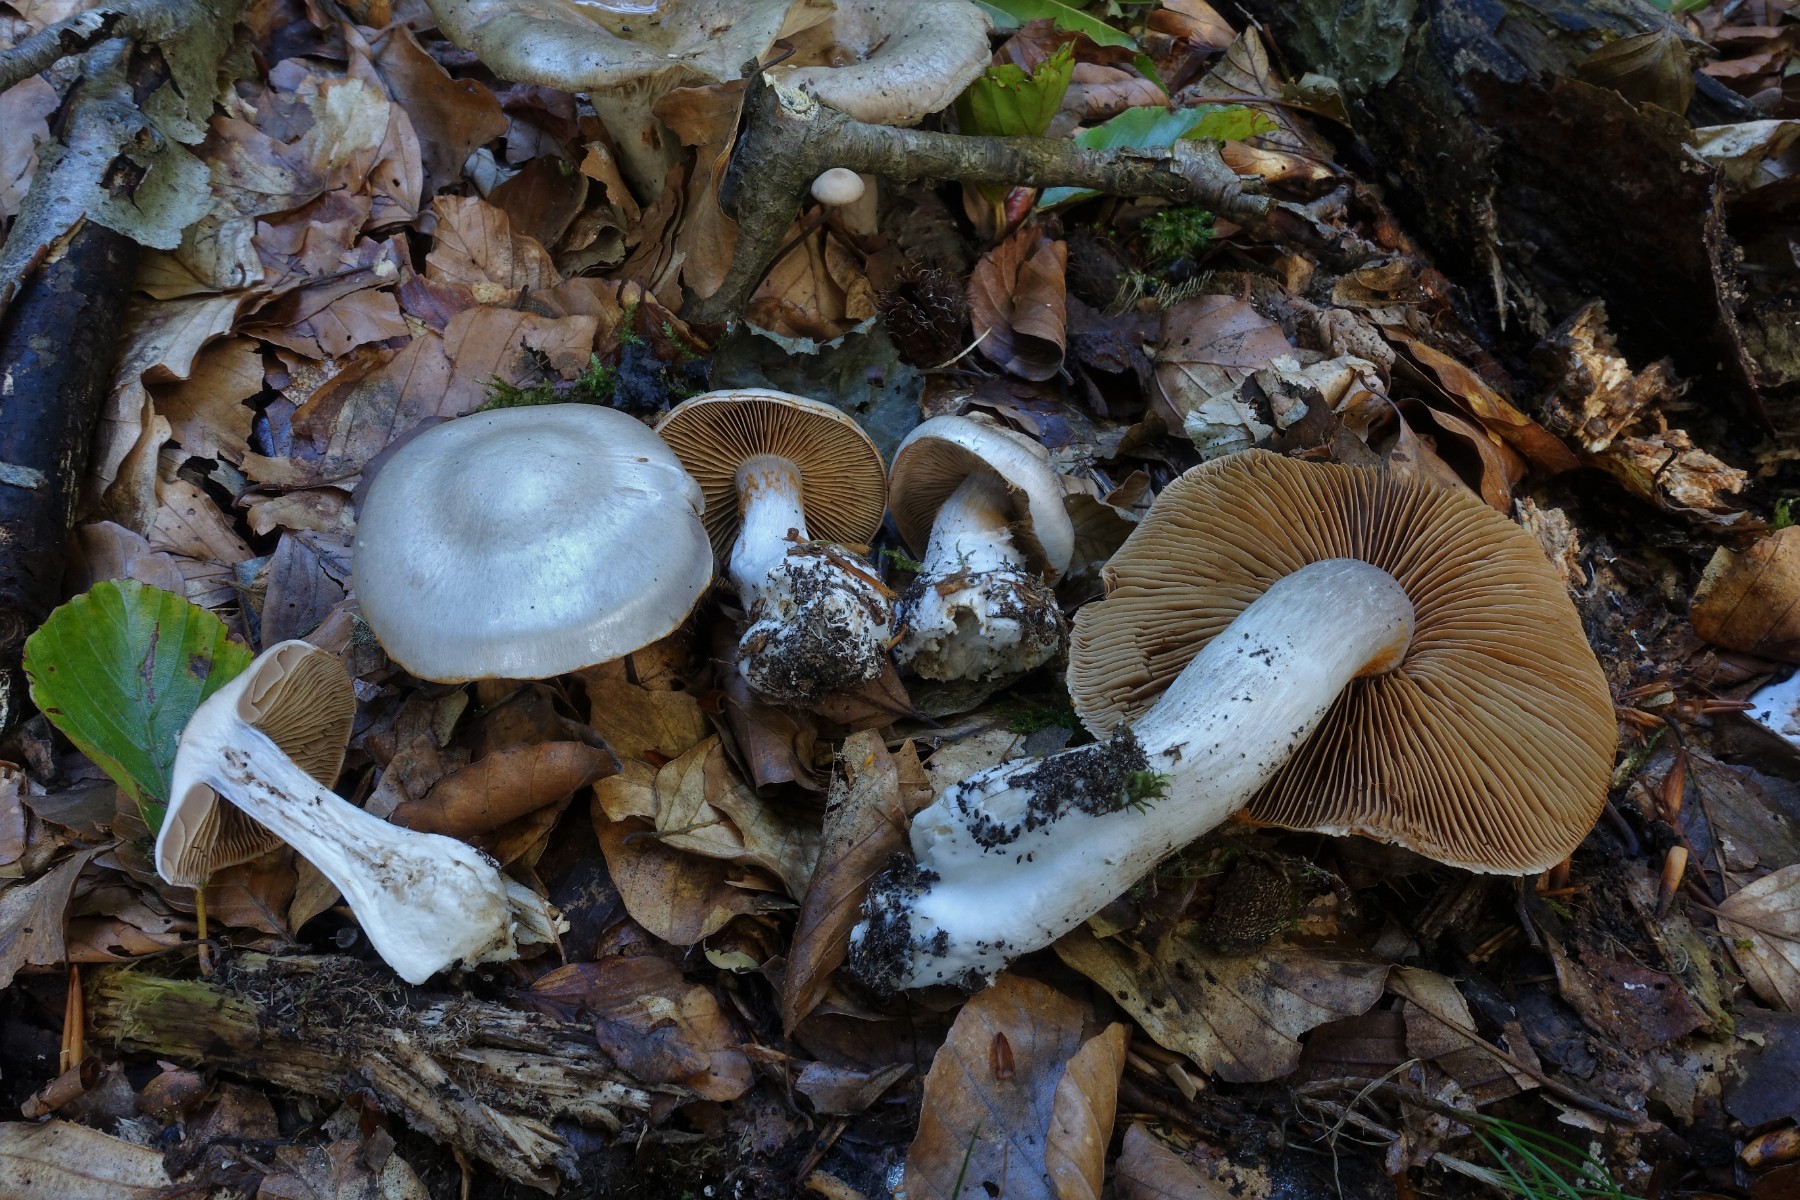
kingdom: Fungi
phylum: Basidiomycota
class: Agaricomycetes
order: Agaricales
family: Cortinariaceae
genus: Cortinarius
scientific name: Cortinarius alboviolaceus
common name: lysviolet slørhat
